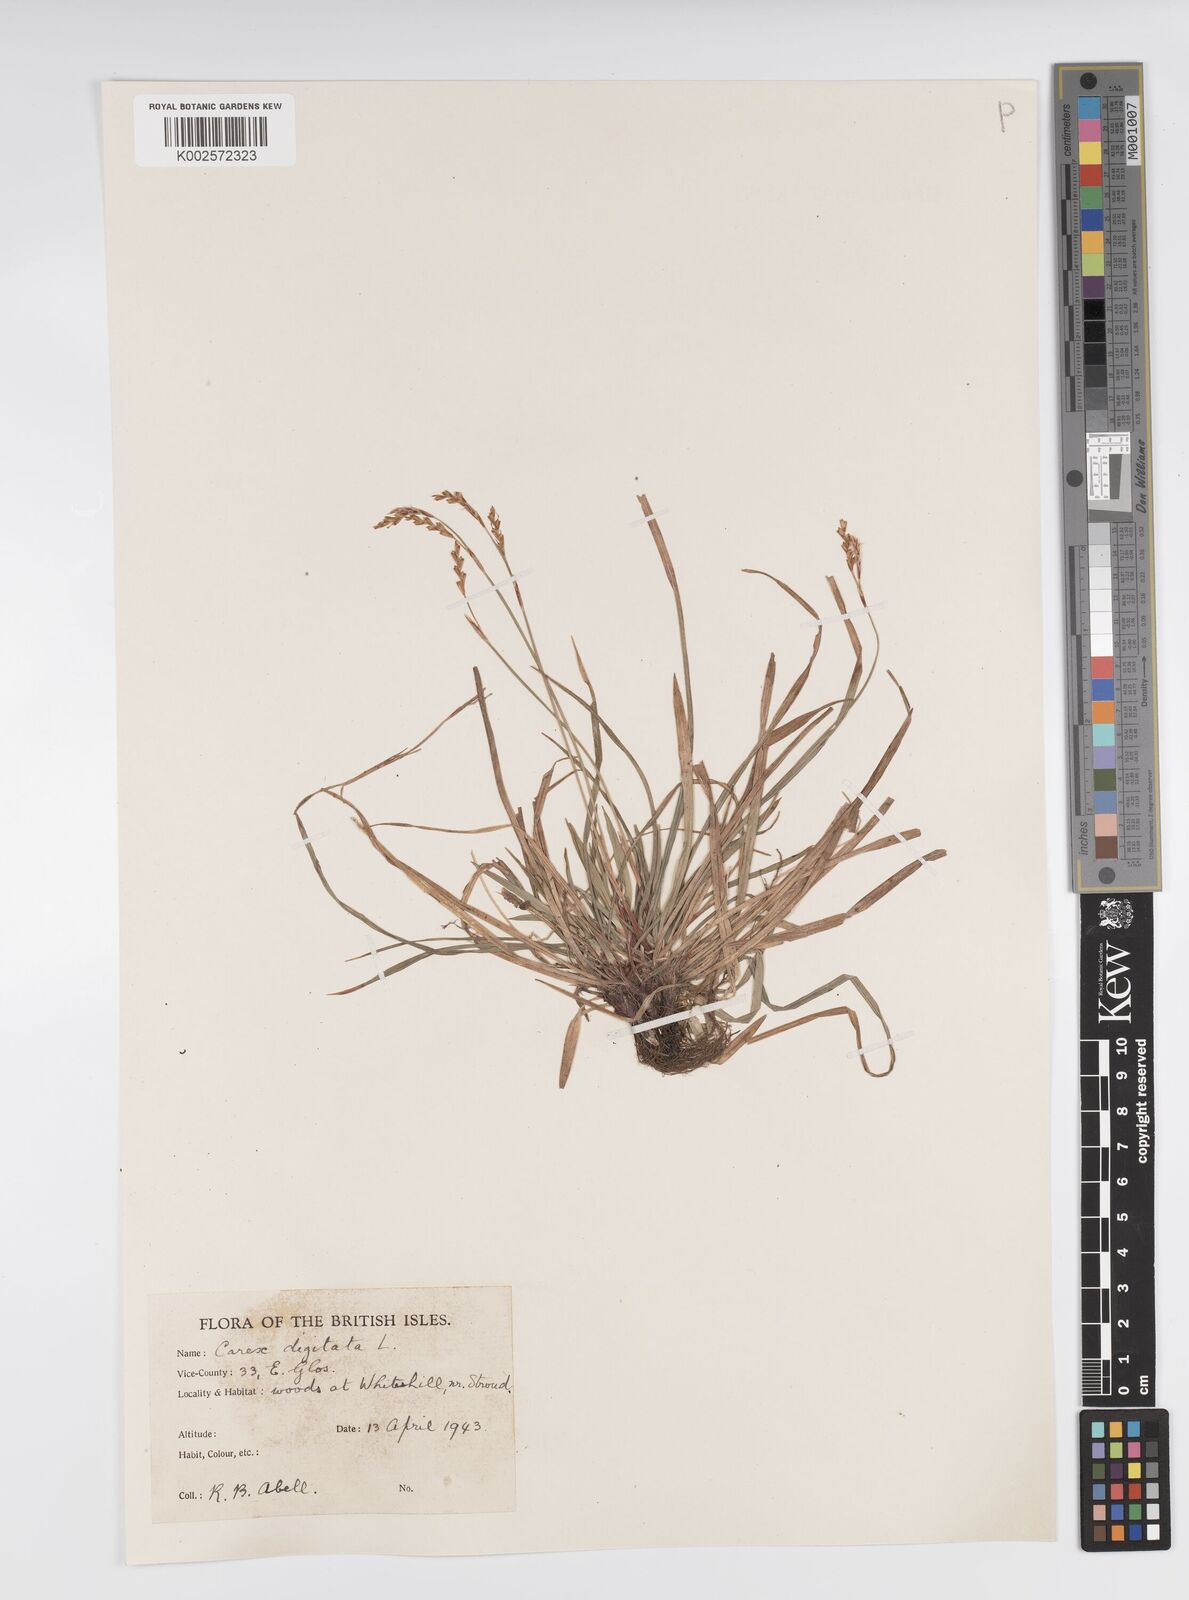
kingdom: Plantae
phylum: Tracheophyta
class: Liliopsida
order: Poales
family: Cyperaceae
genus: Carex
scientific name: Carex digitata
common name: Fingered sedge
